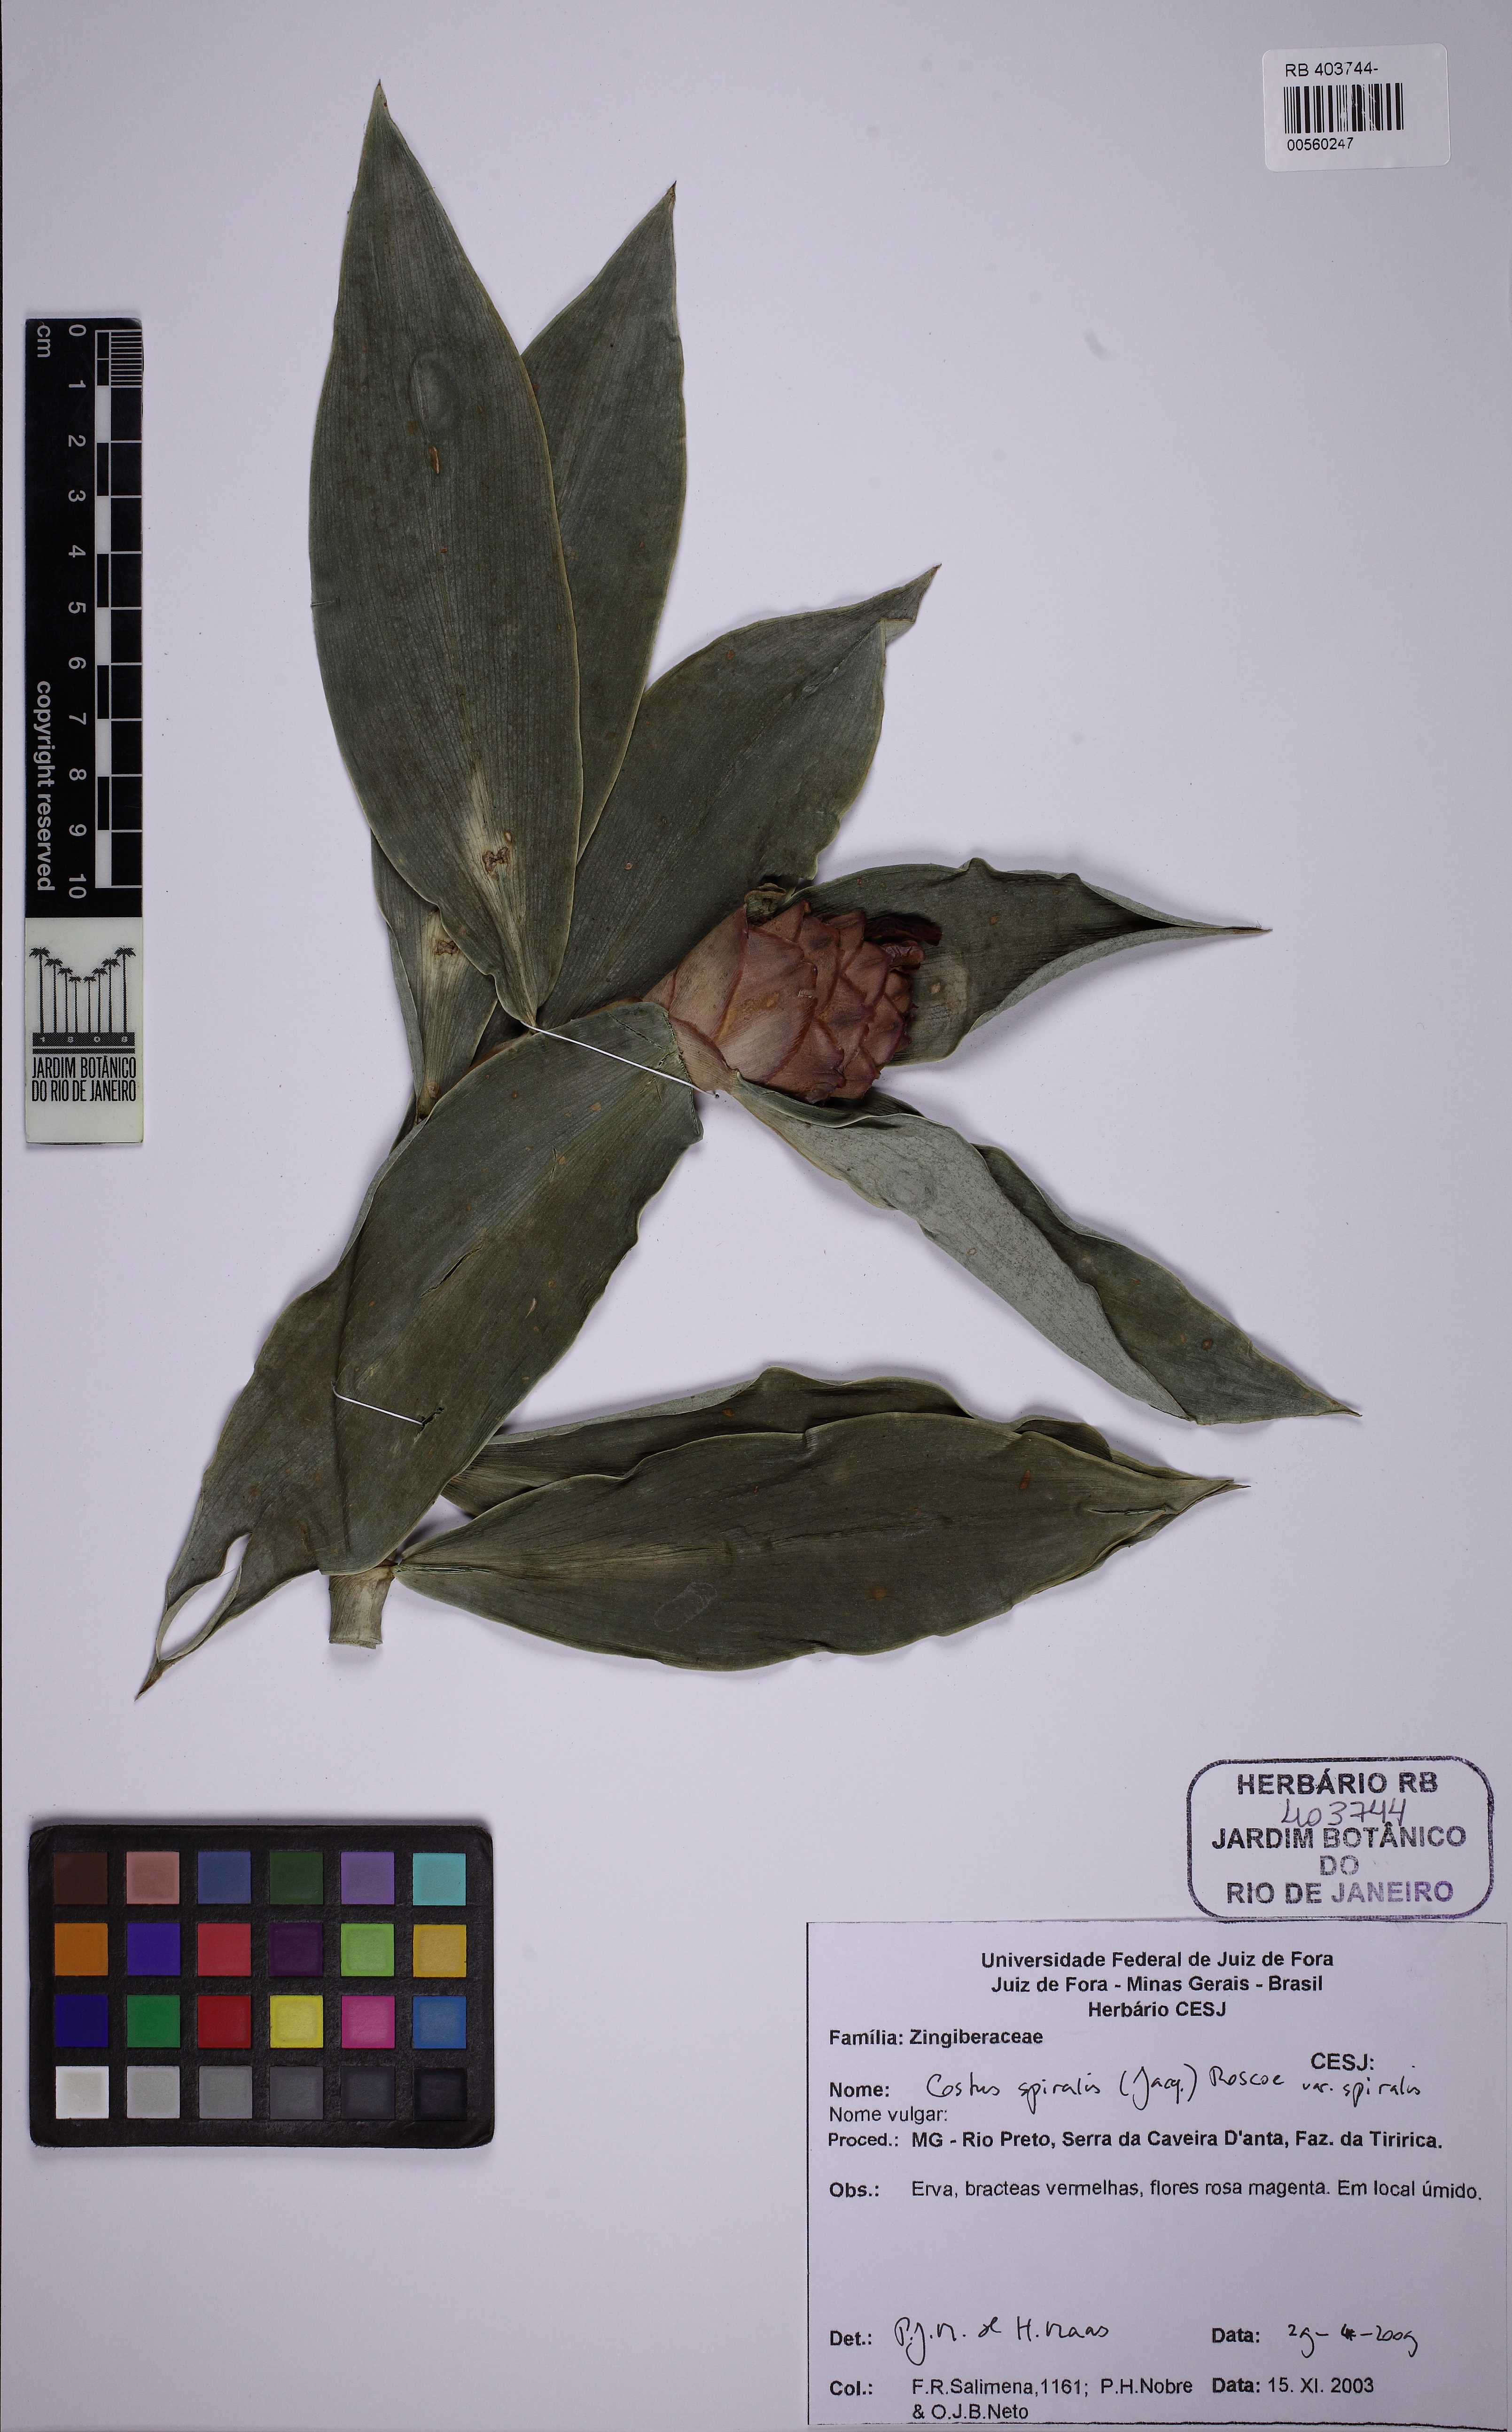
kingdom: Plantae
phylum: Tracheophyta
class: Liliopsida
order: Zingiberales
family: Costaceae
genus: Costus
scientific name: Costus spiralis
